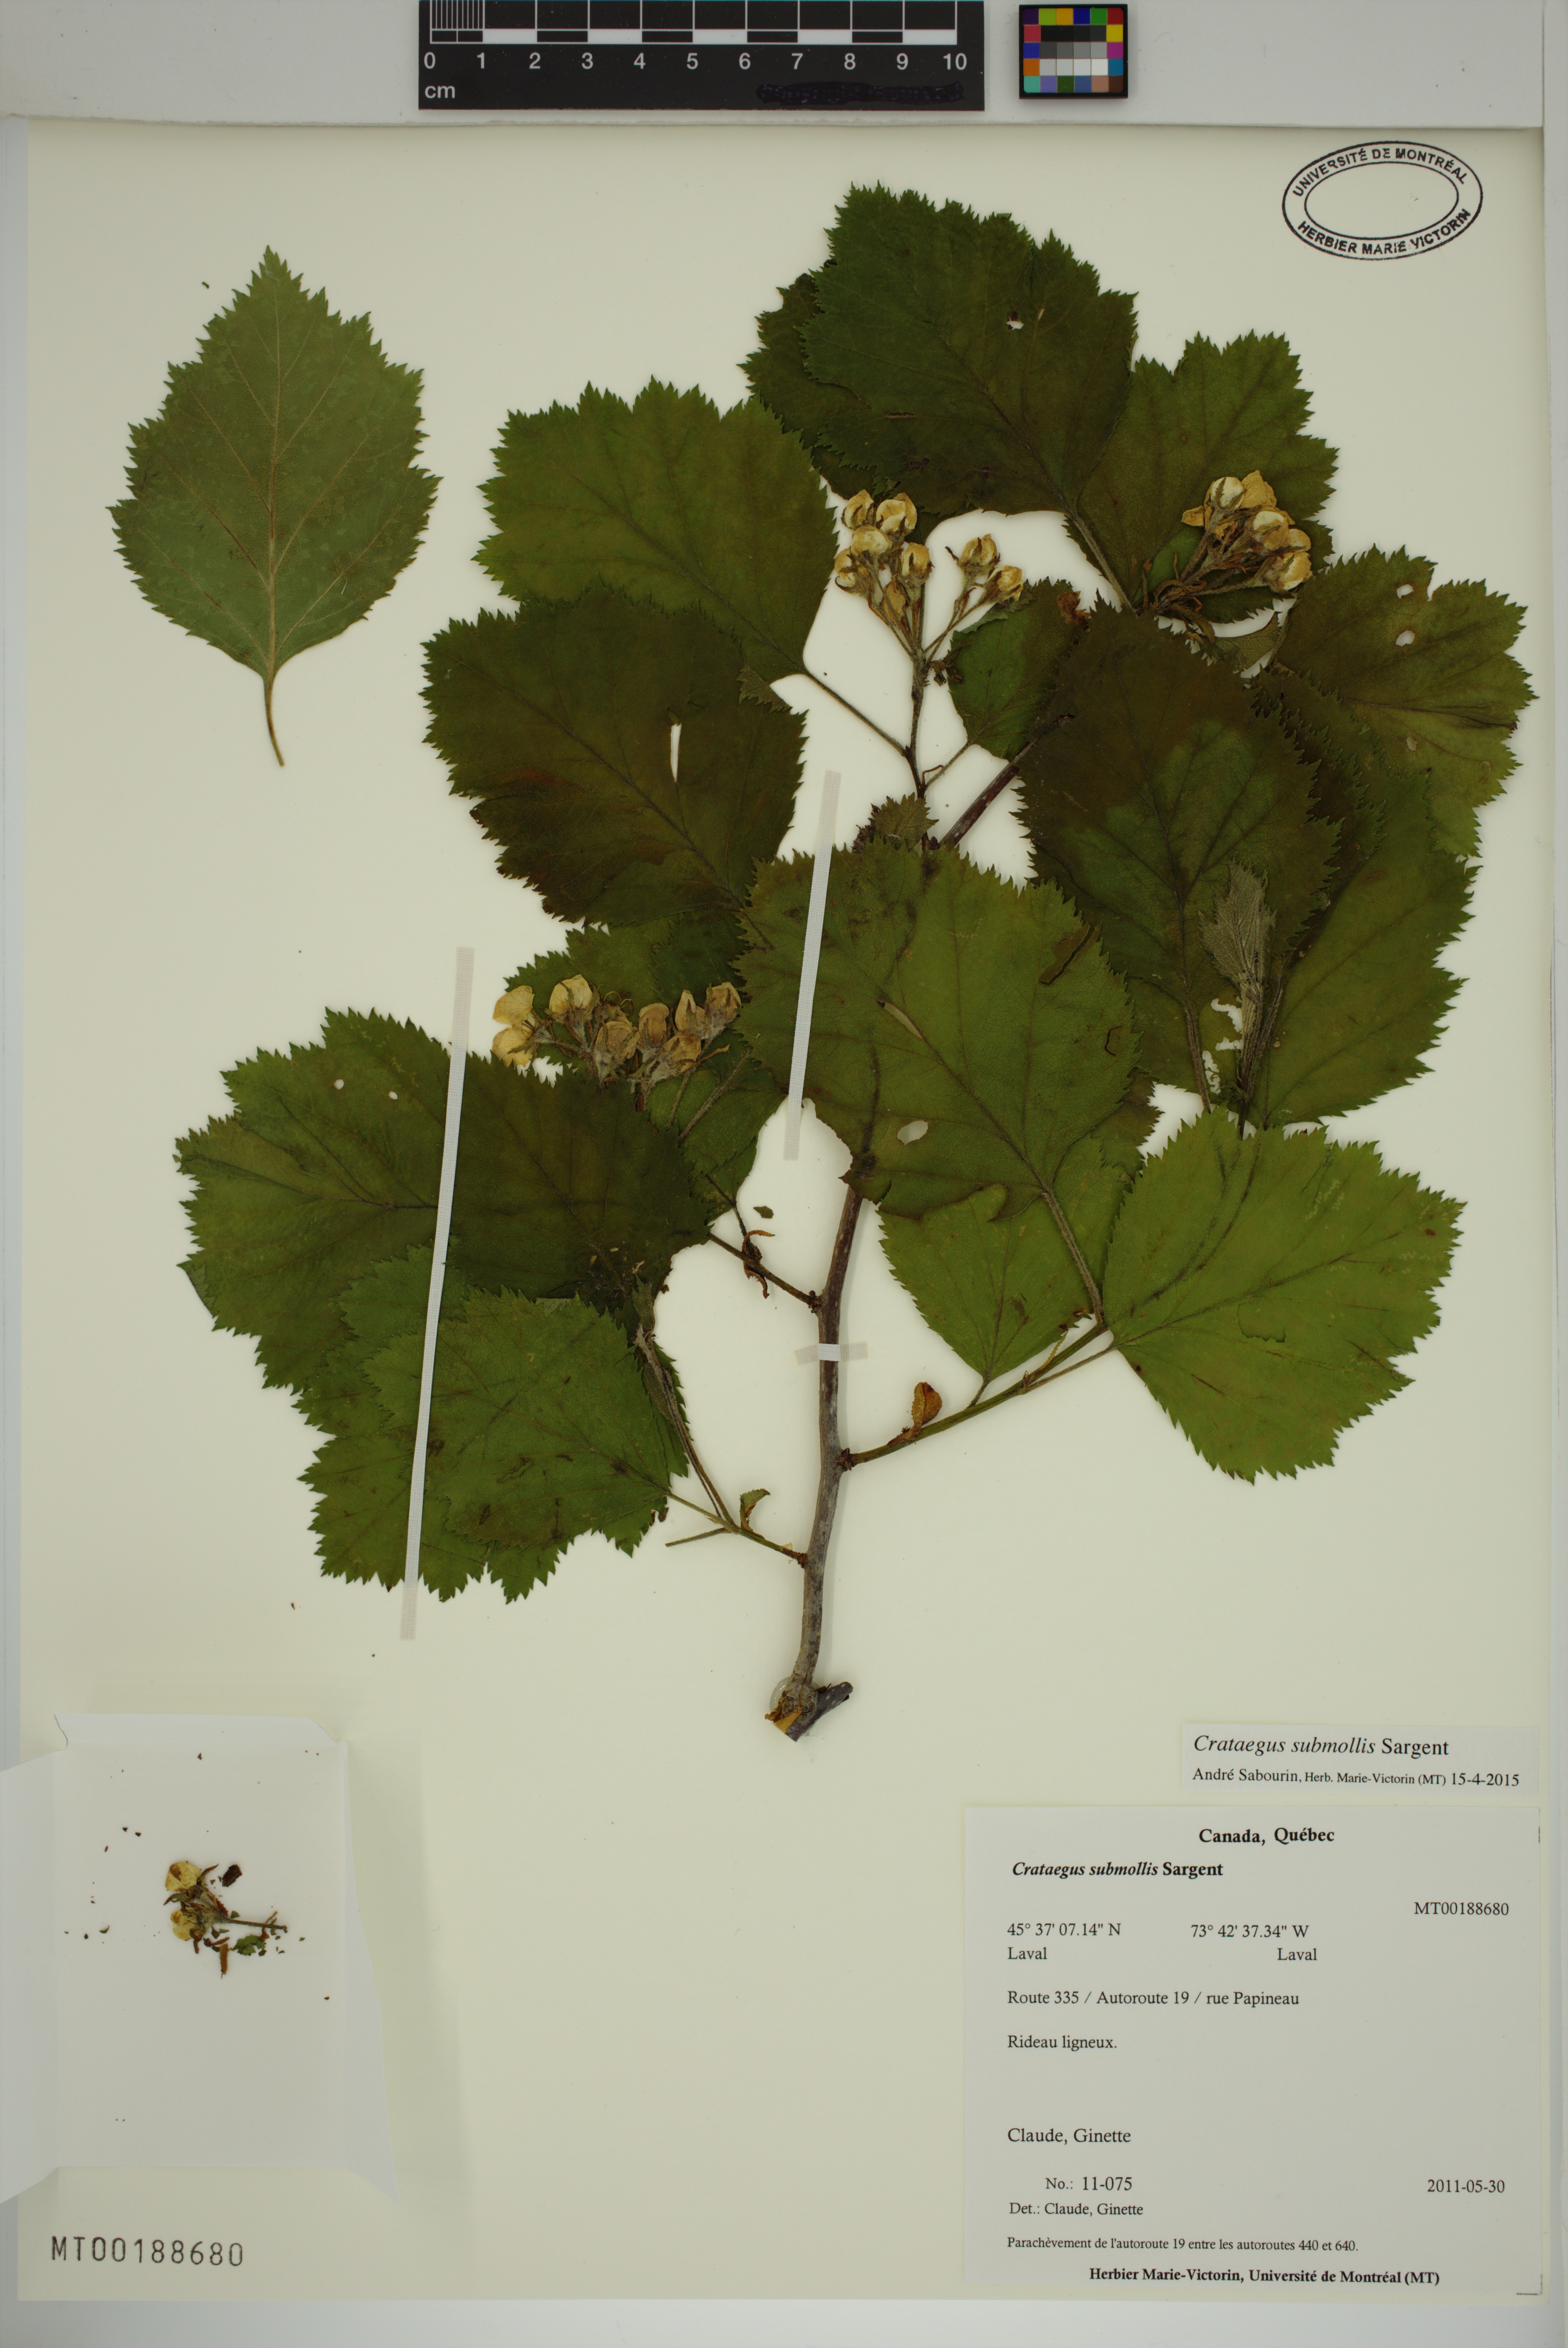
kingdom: Plantae
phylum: Tracheophyta
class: Magnoliopsida
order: Rosales
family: Rosaceae
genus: Crataegus
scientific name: Crataegus submollis
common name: Hairy cockspurthorn
